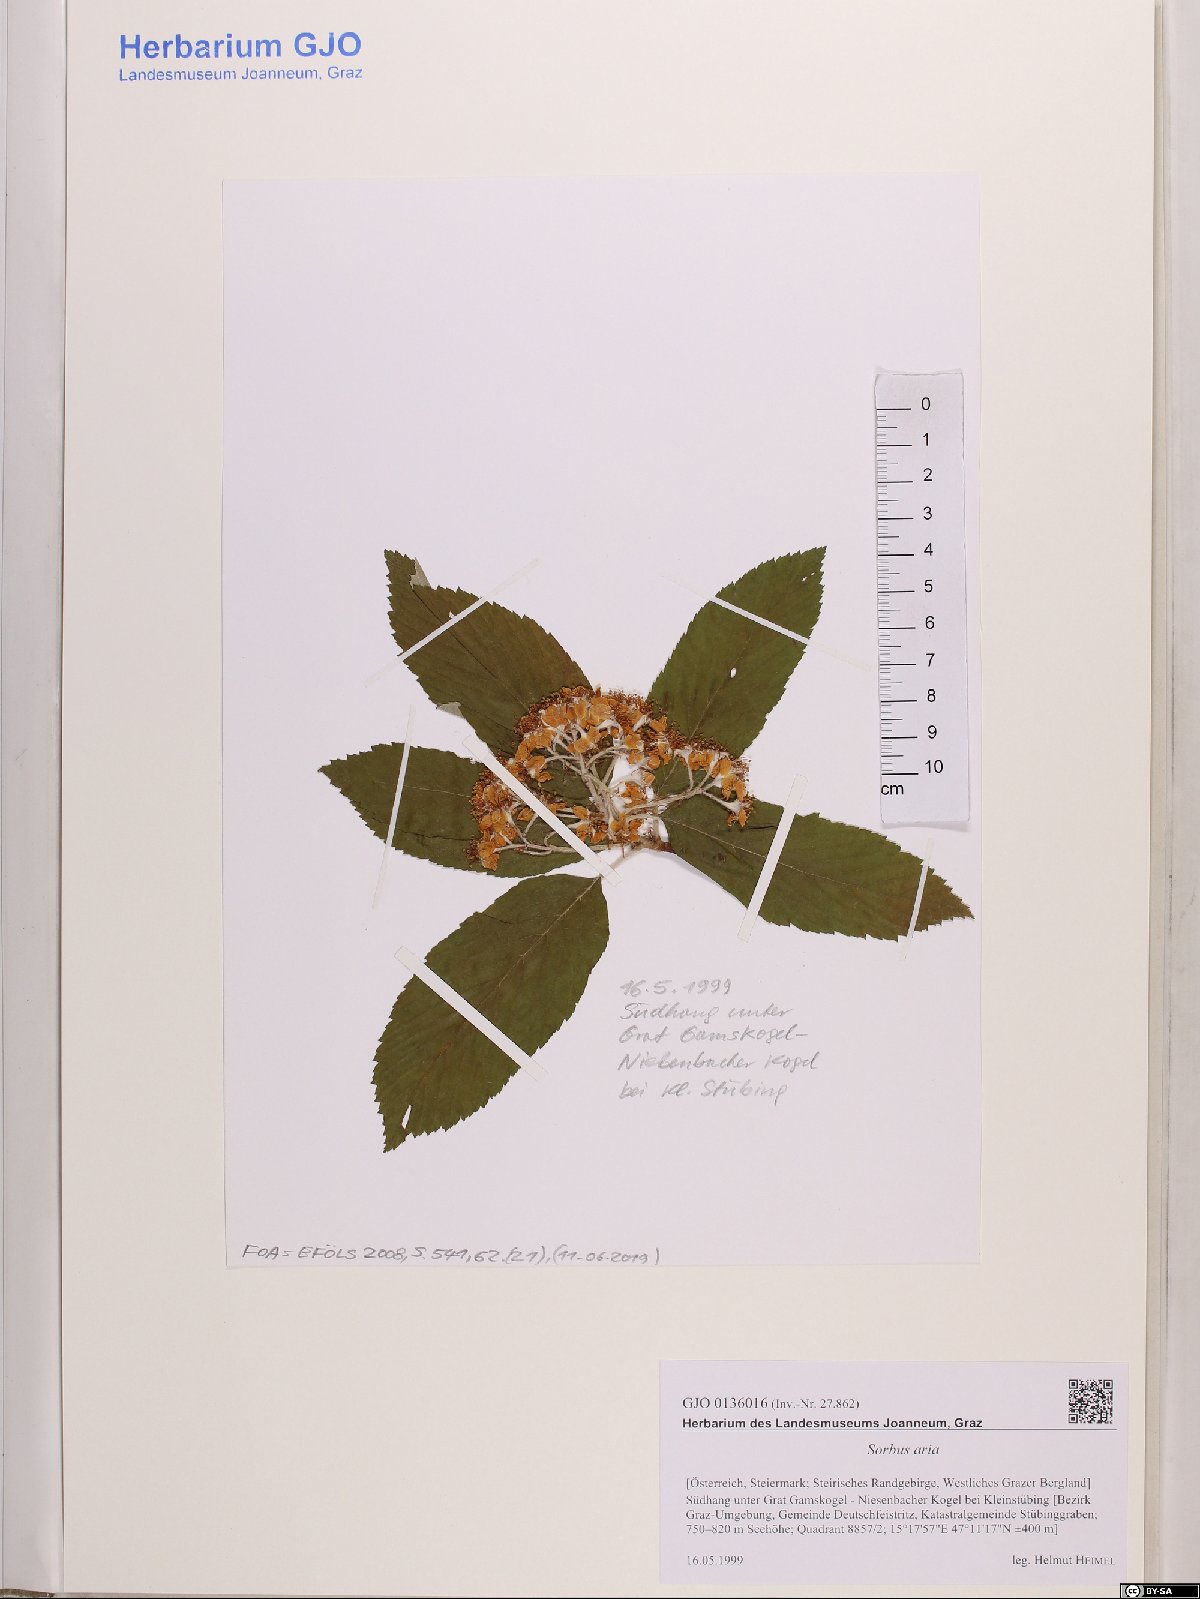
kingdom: Plantae
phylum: Tracheophyta
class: Magnoliopsida
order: Rosales
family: Rosaceae
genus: Aria
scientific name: Aria edulis
